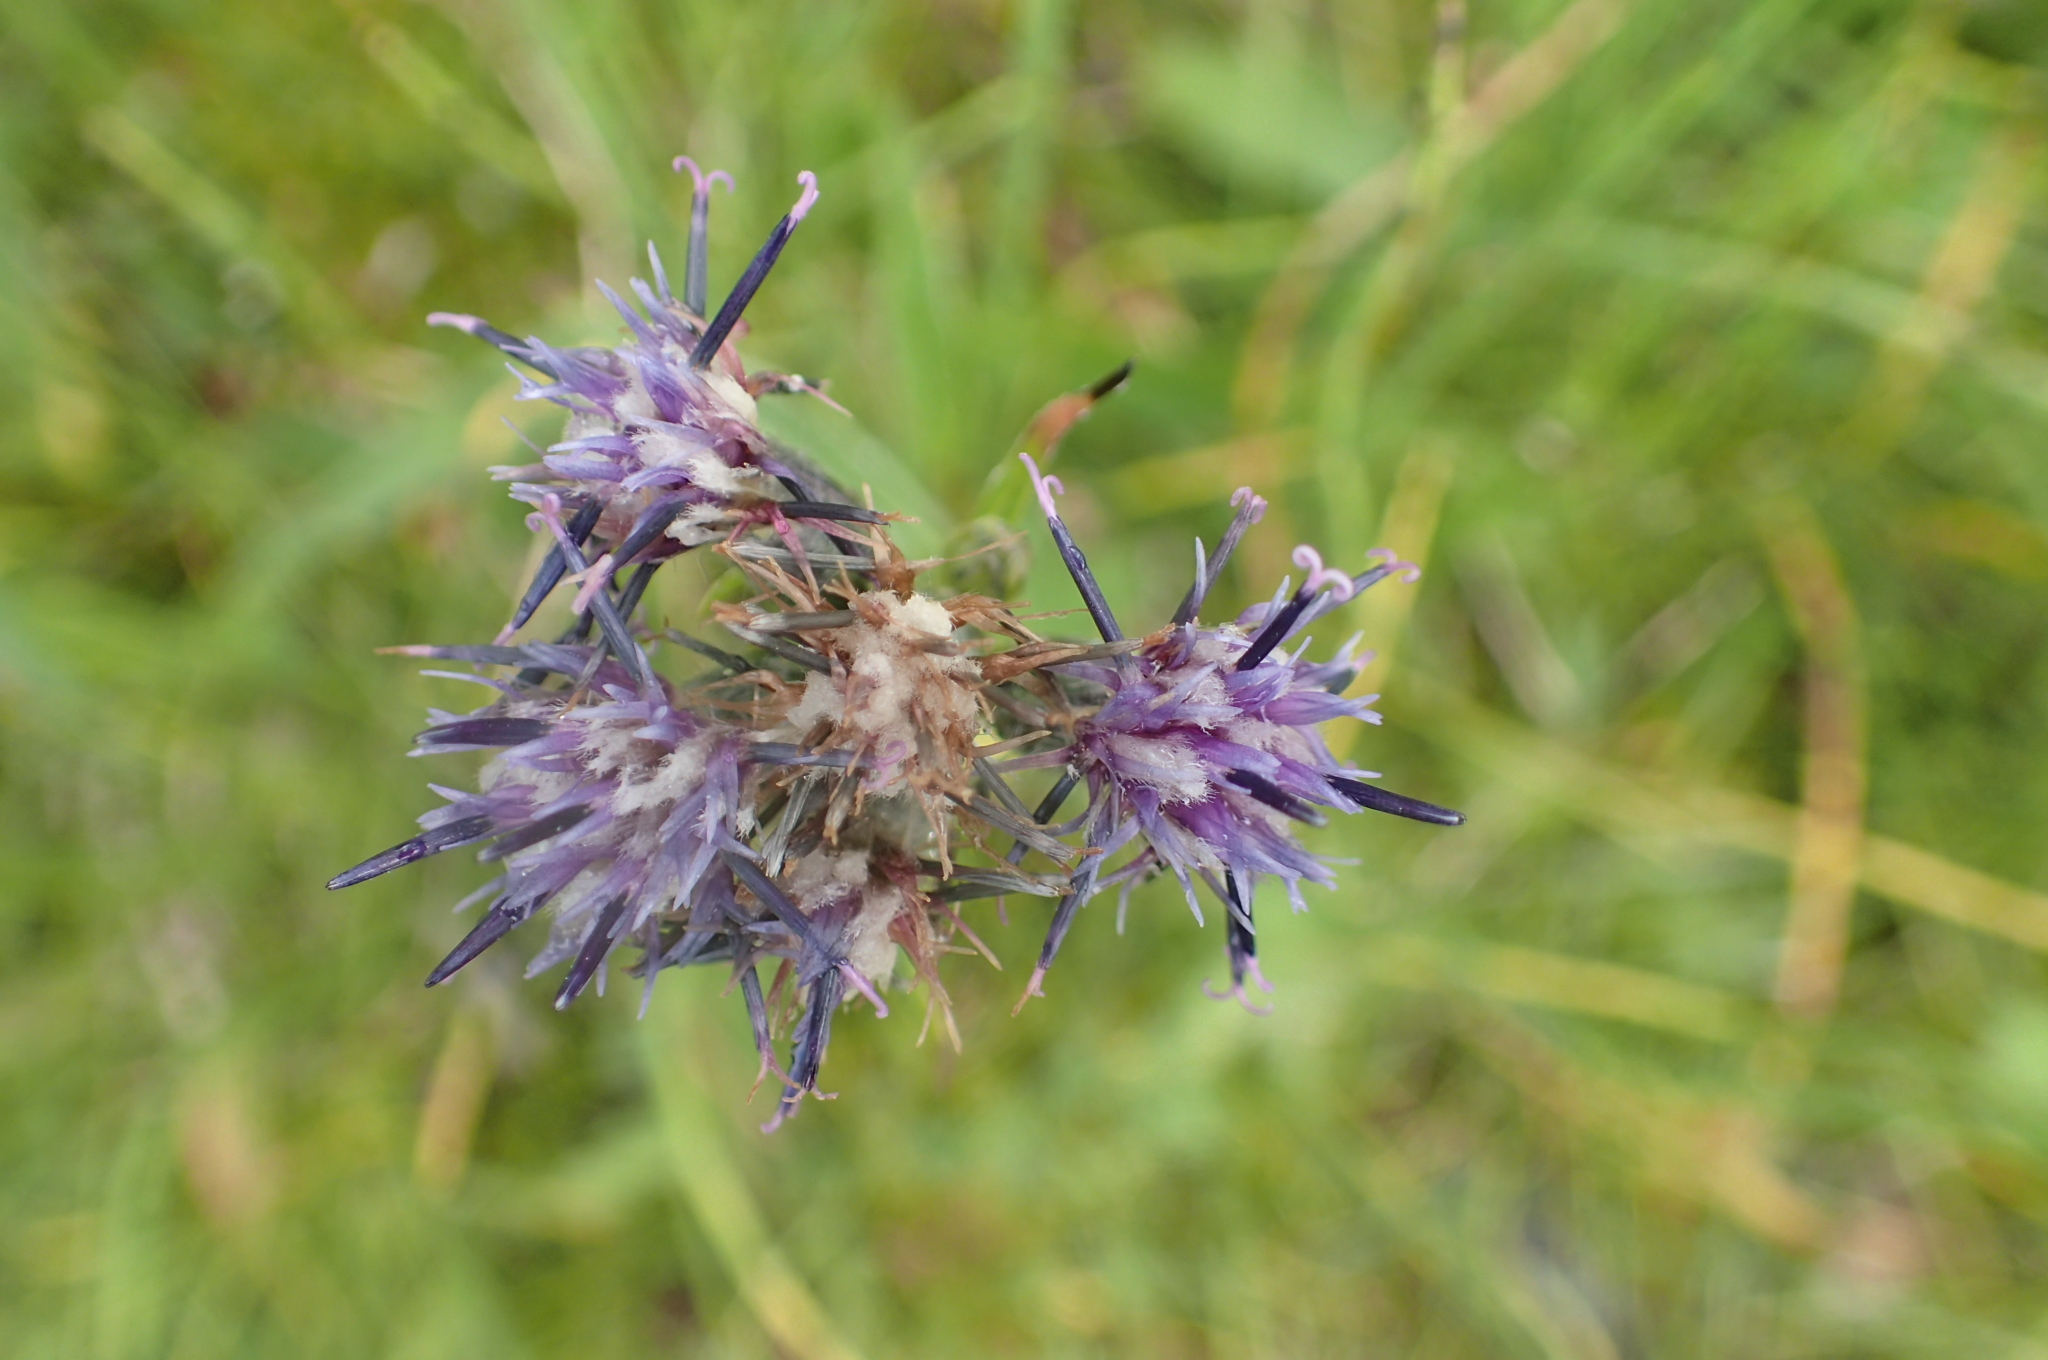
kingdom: Plantae
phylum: Tracheophyta
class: Liliopsida
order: Alismatales
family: Tofieldiaceae
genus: Tofieldia
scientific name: Tofieldia pusilla
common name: Scottish false asphodel
